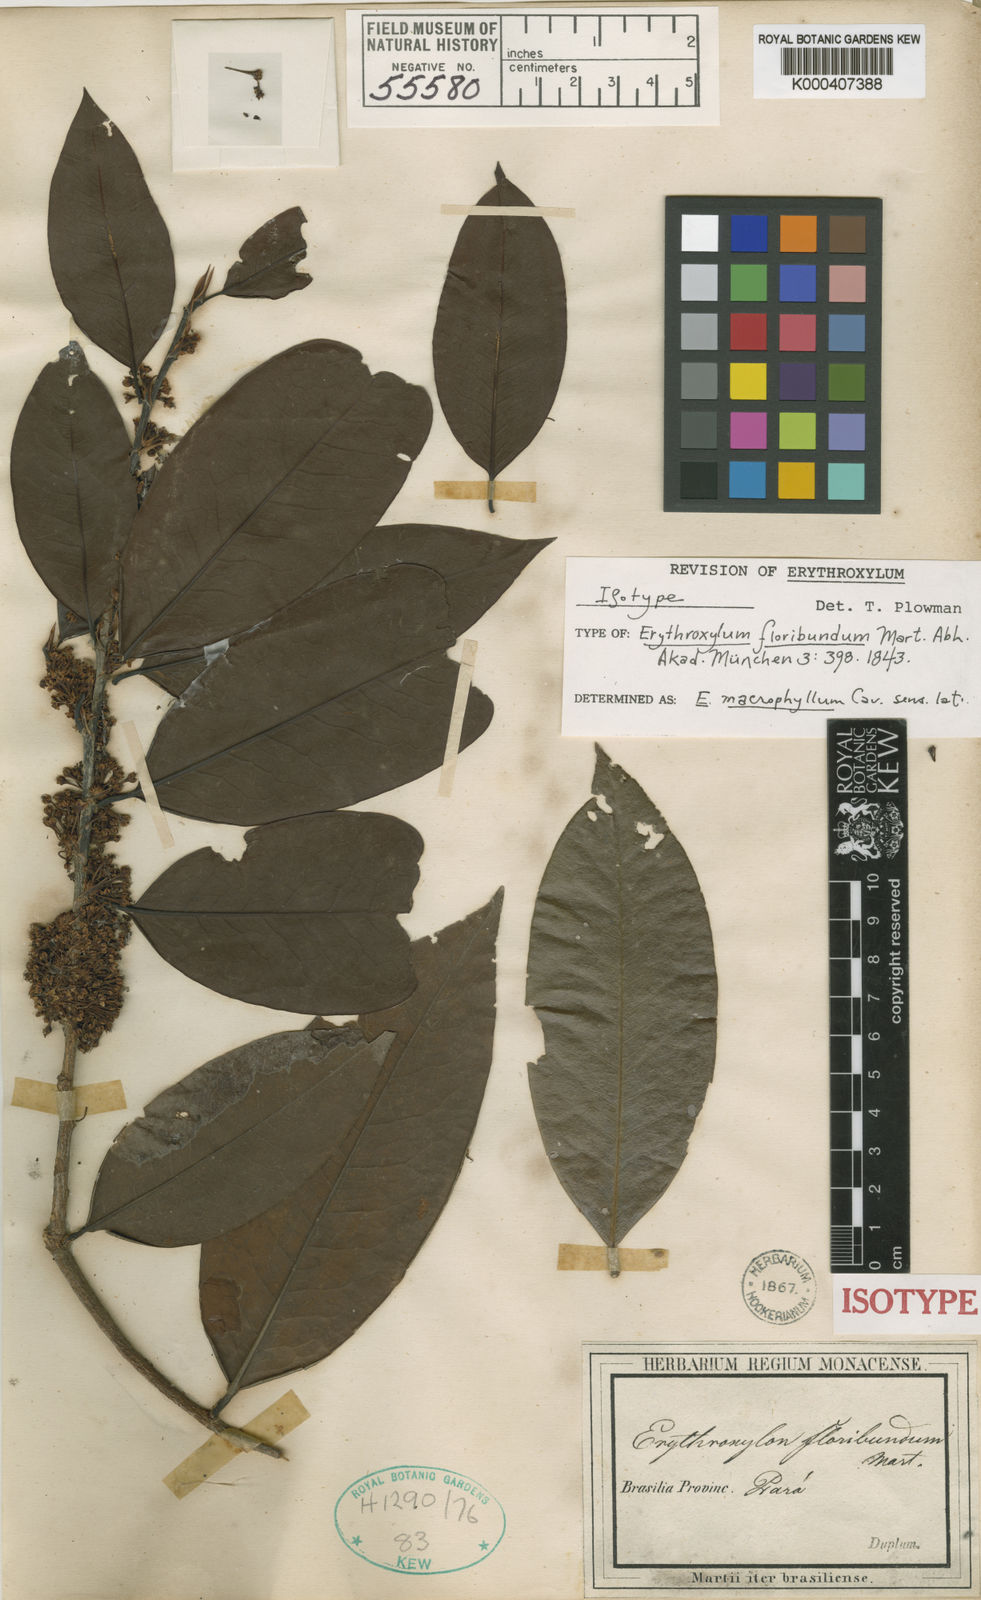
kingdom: Plantae
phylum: Tracheophyta
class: Magnoliopsida
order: Malpighiales
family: Erythroxylaceae
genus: Erythroxylum
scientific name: Erythroxylum macrophyllum
